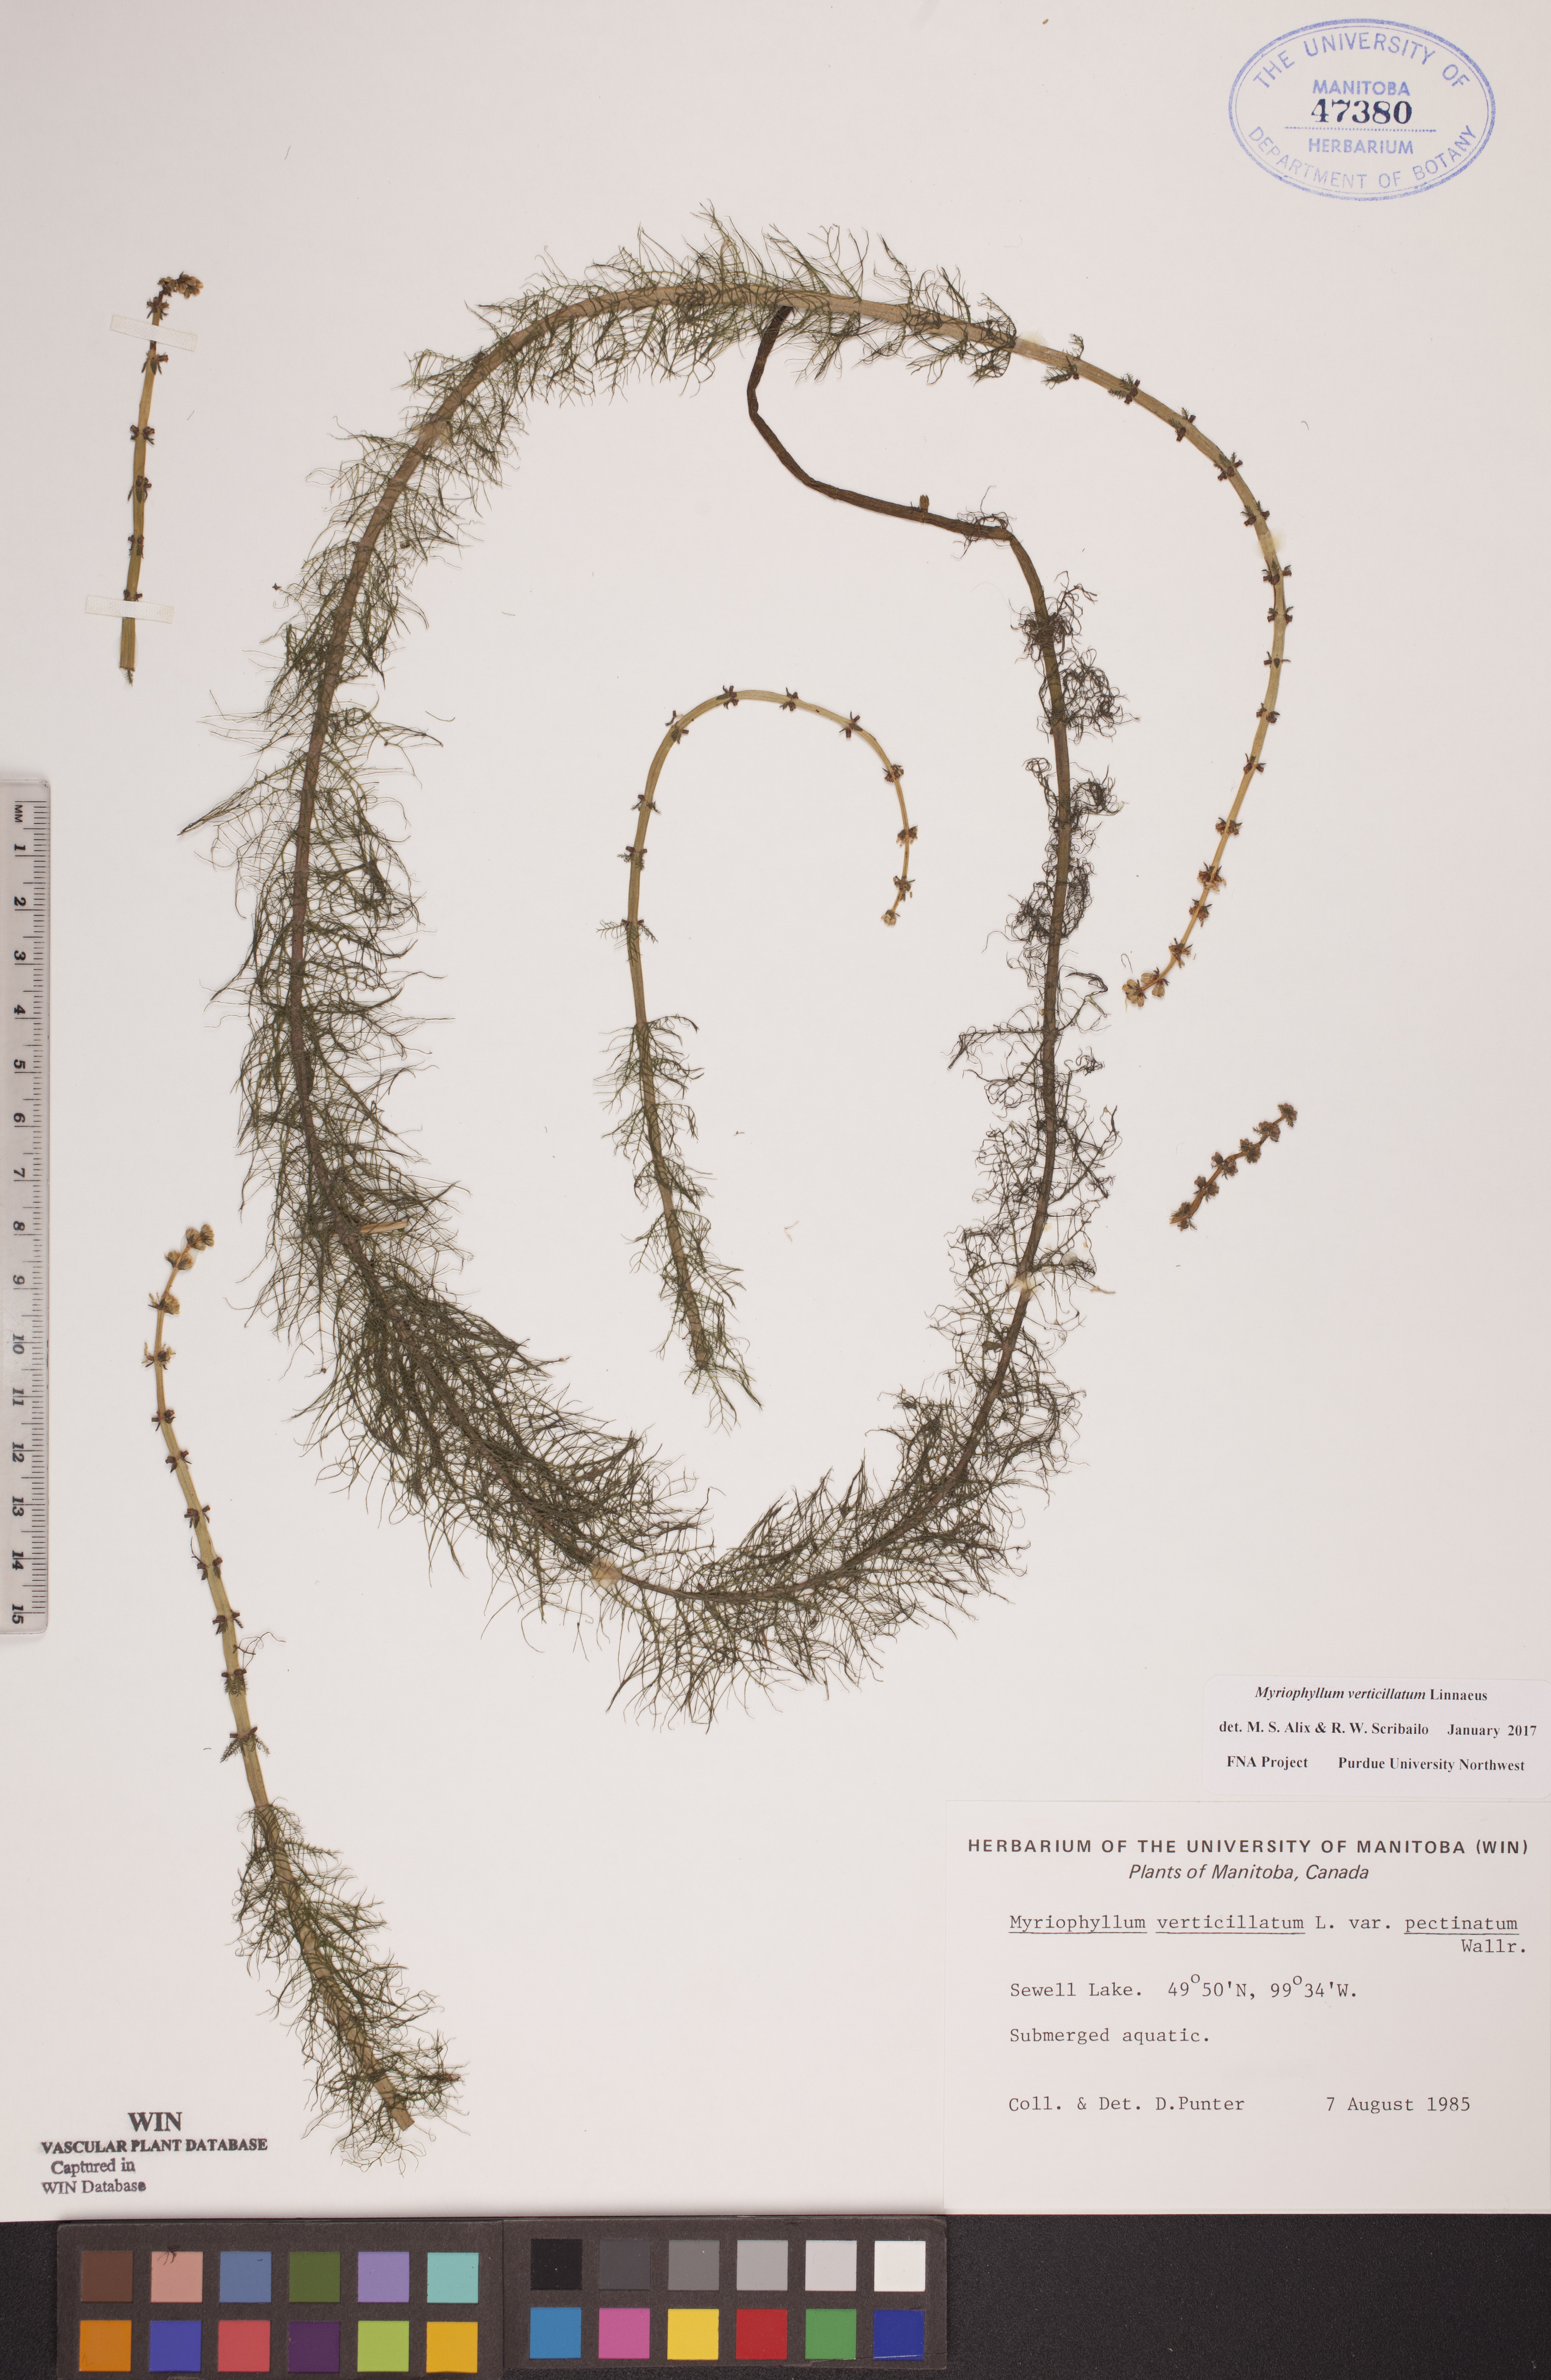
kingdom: Plantae
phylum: Tracheophyta
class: Magnoliopsida
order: Saxifragales
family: Haloragaceae
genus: Myriophyllum
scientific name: Myriophyllum verticillatum
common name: Whorled water-milfoil
